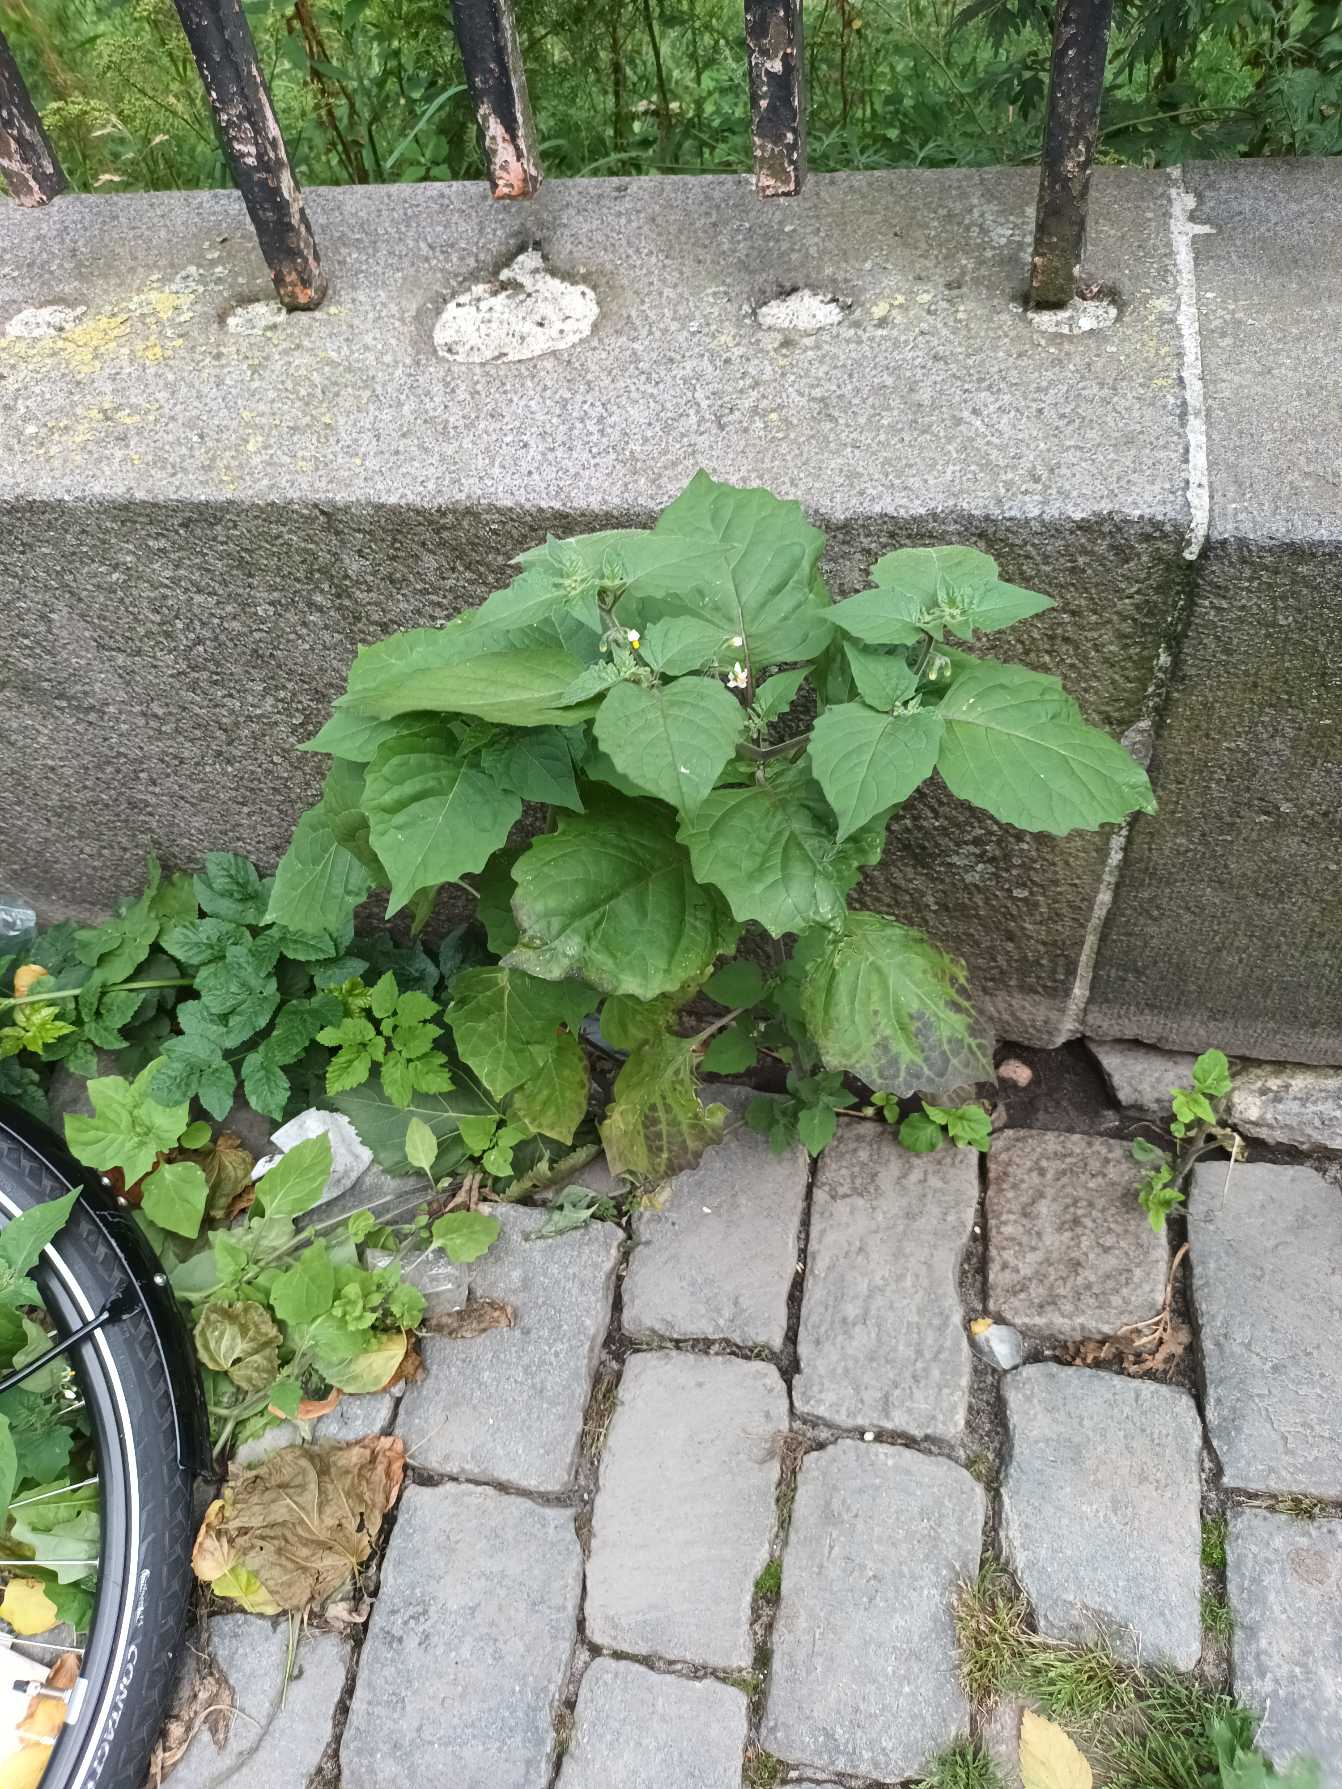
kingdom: Plantae
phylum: Tracheophyta
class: Magnoliopsida
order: Solanales
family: Solanaceae
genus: Solanum
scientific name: Solanum decipiens
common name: Kirtel-natskygge
